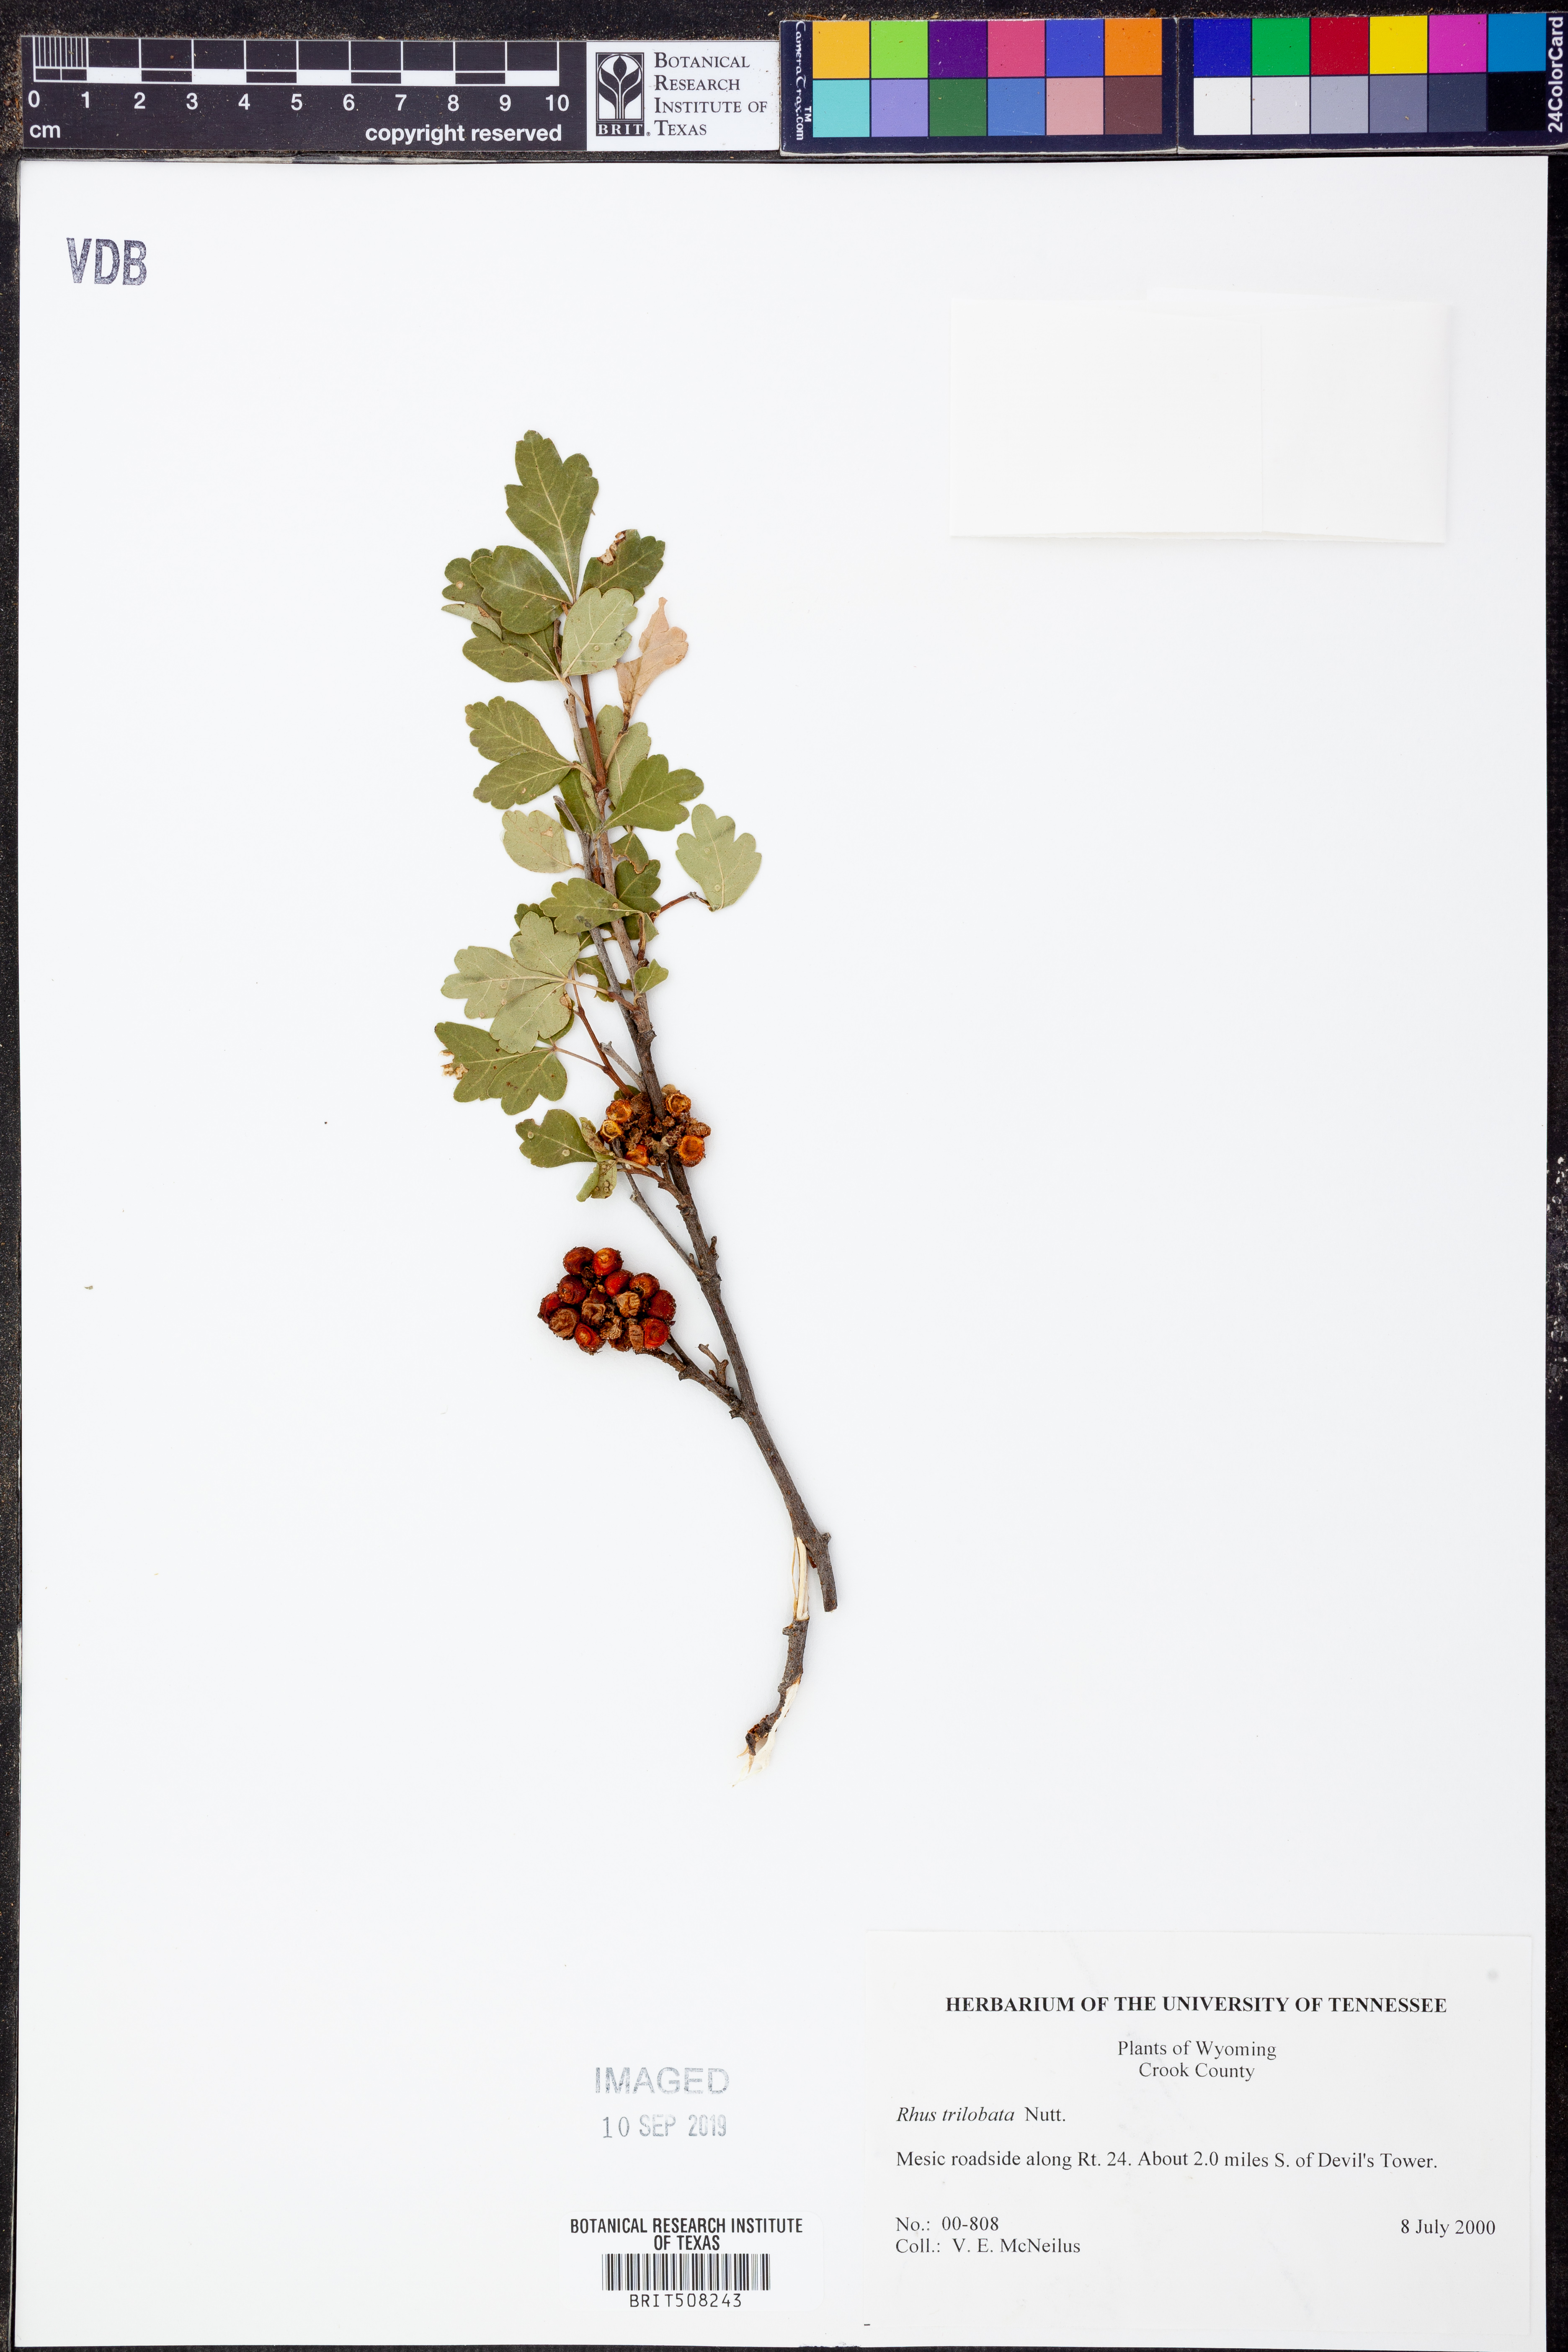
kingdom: Plantae
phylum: Tracheophyta
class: Magnoliopsida
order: Sapindales
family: Anacardiaceae
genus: Rhus
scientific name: Rhus trilobata
